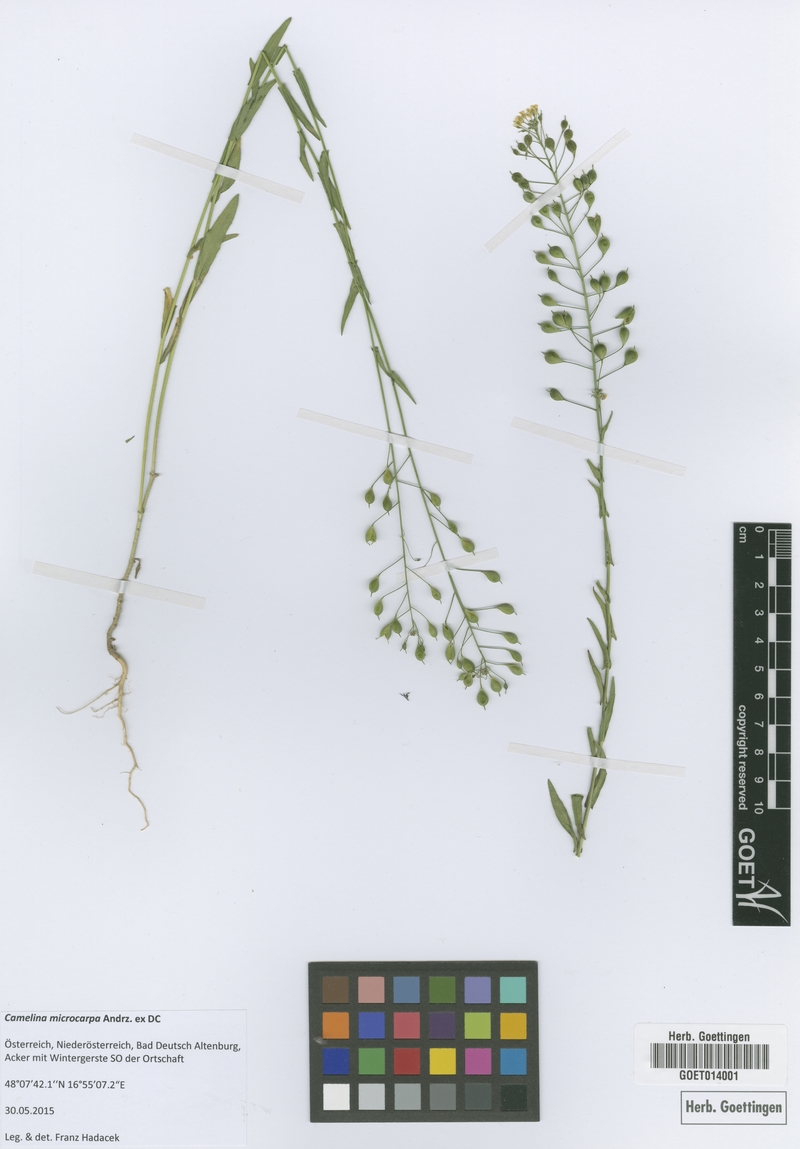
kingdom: Plantae
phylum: Tracheophyta
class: Magnoliopsida
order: Brassicales
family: Brassicaceae
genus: Camelina
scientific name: Camelina microcarpa
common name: Lesser gold-of-pleasure
